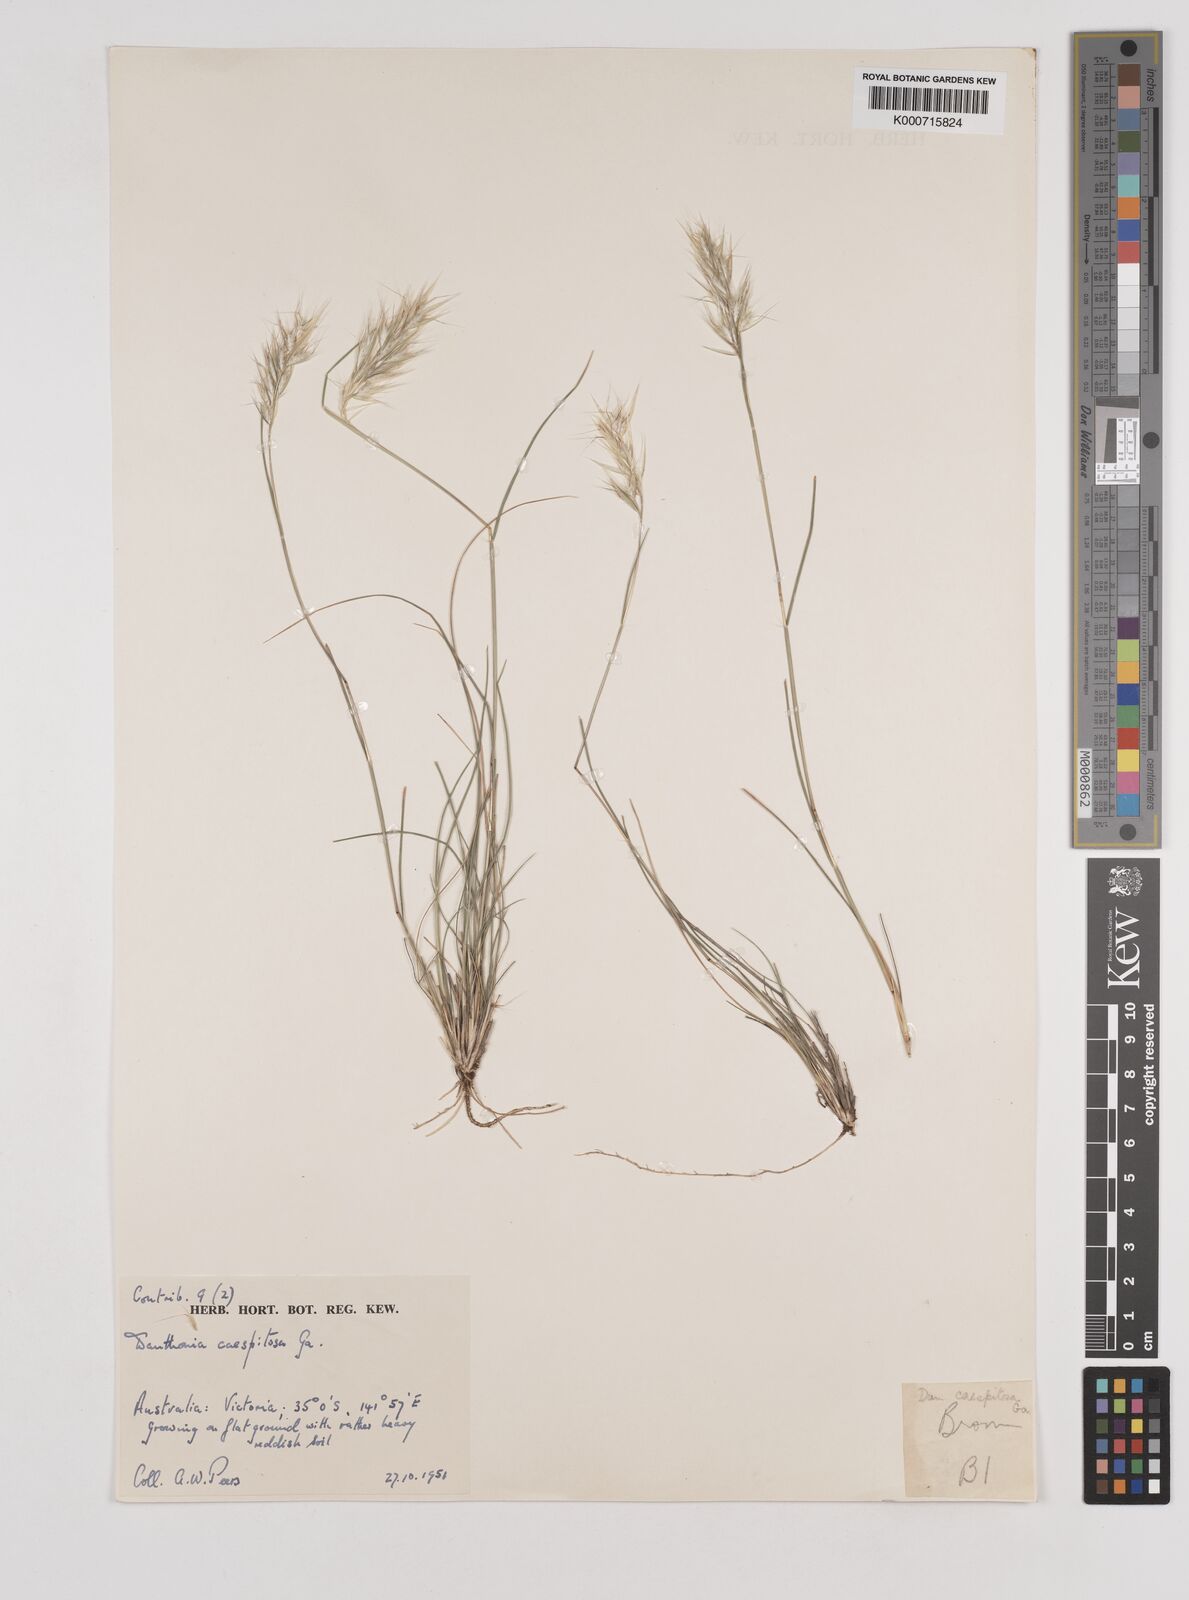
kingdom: Plantae
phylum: Tracheophyta
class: Liliopsida
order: Poales
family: Poaceae
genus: Rytidosperma
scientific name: Rytidosperma caespitosum
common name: Tufted wallaby grass
